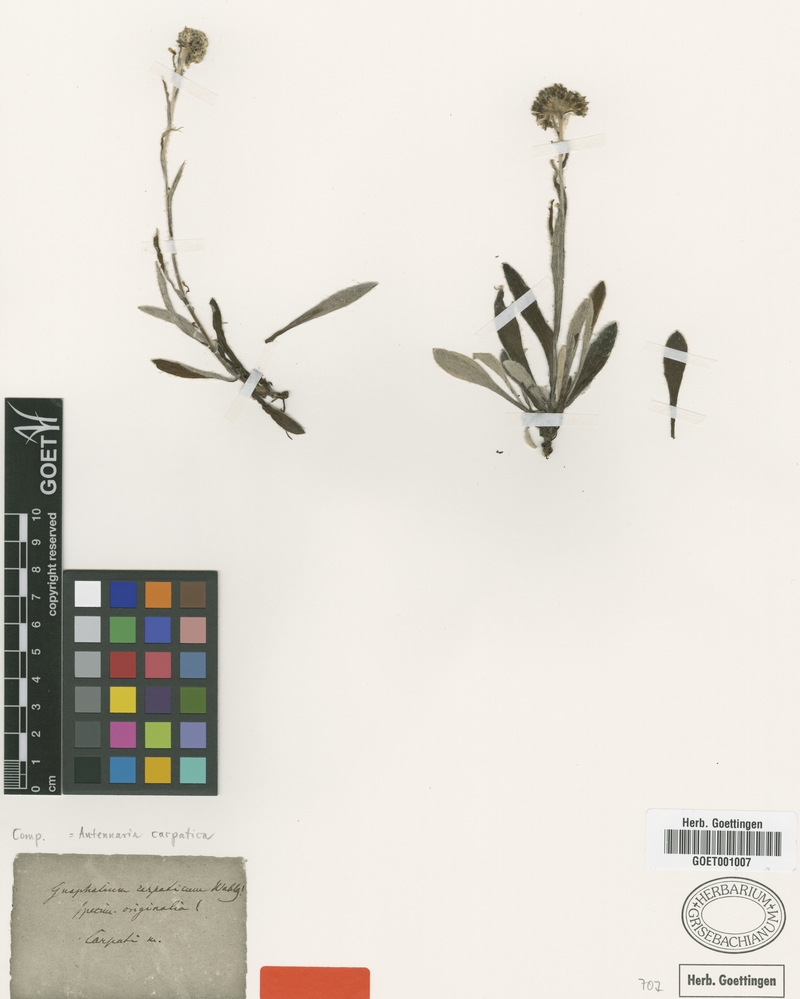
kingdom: Plantae
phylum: Tracheophyta
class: Magnoliopsida
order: Asterales
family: Asteraceae
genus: Antennaria
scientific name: Antennaria carpatica
